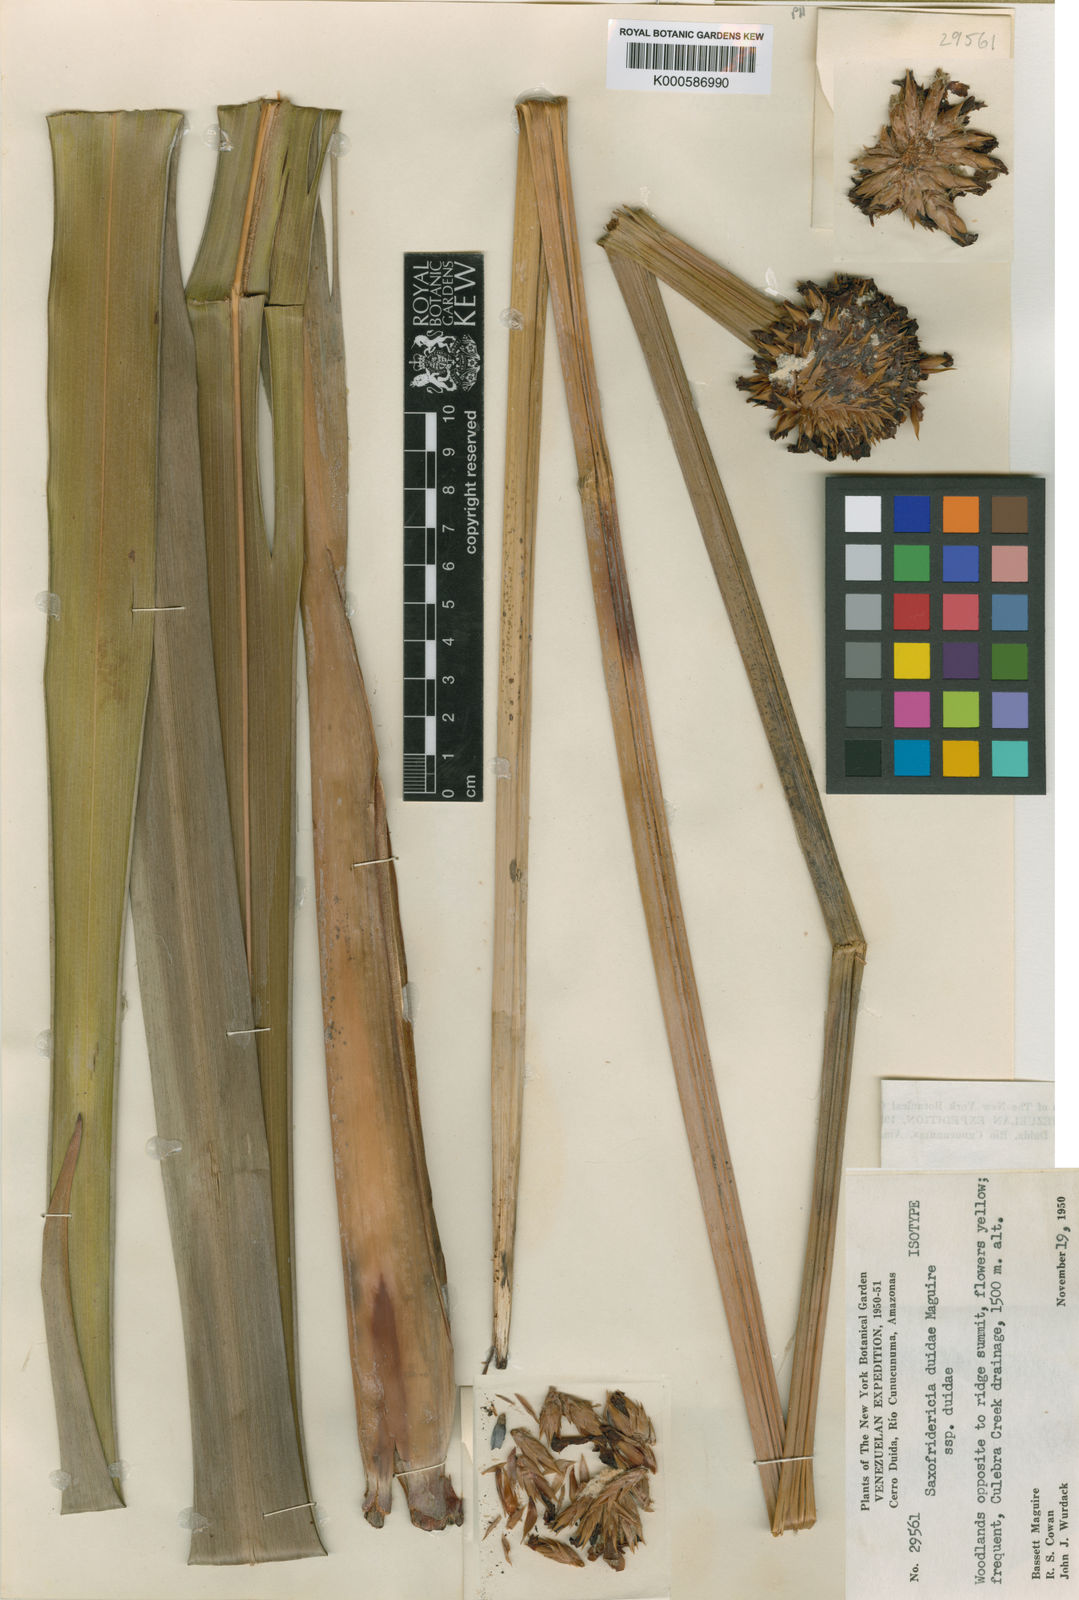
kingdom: Plantae
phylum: Tracheophyta
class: Liliopsida
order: Poales
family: Rapateaceae
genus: Saxofridericia
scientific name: Saxofridericia duidae
